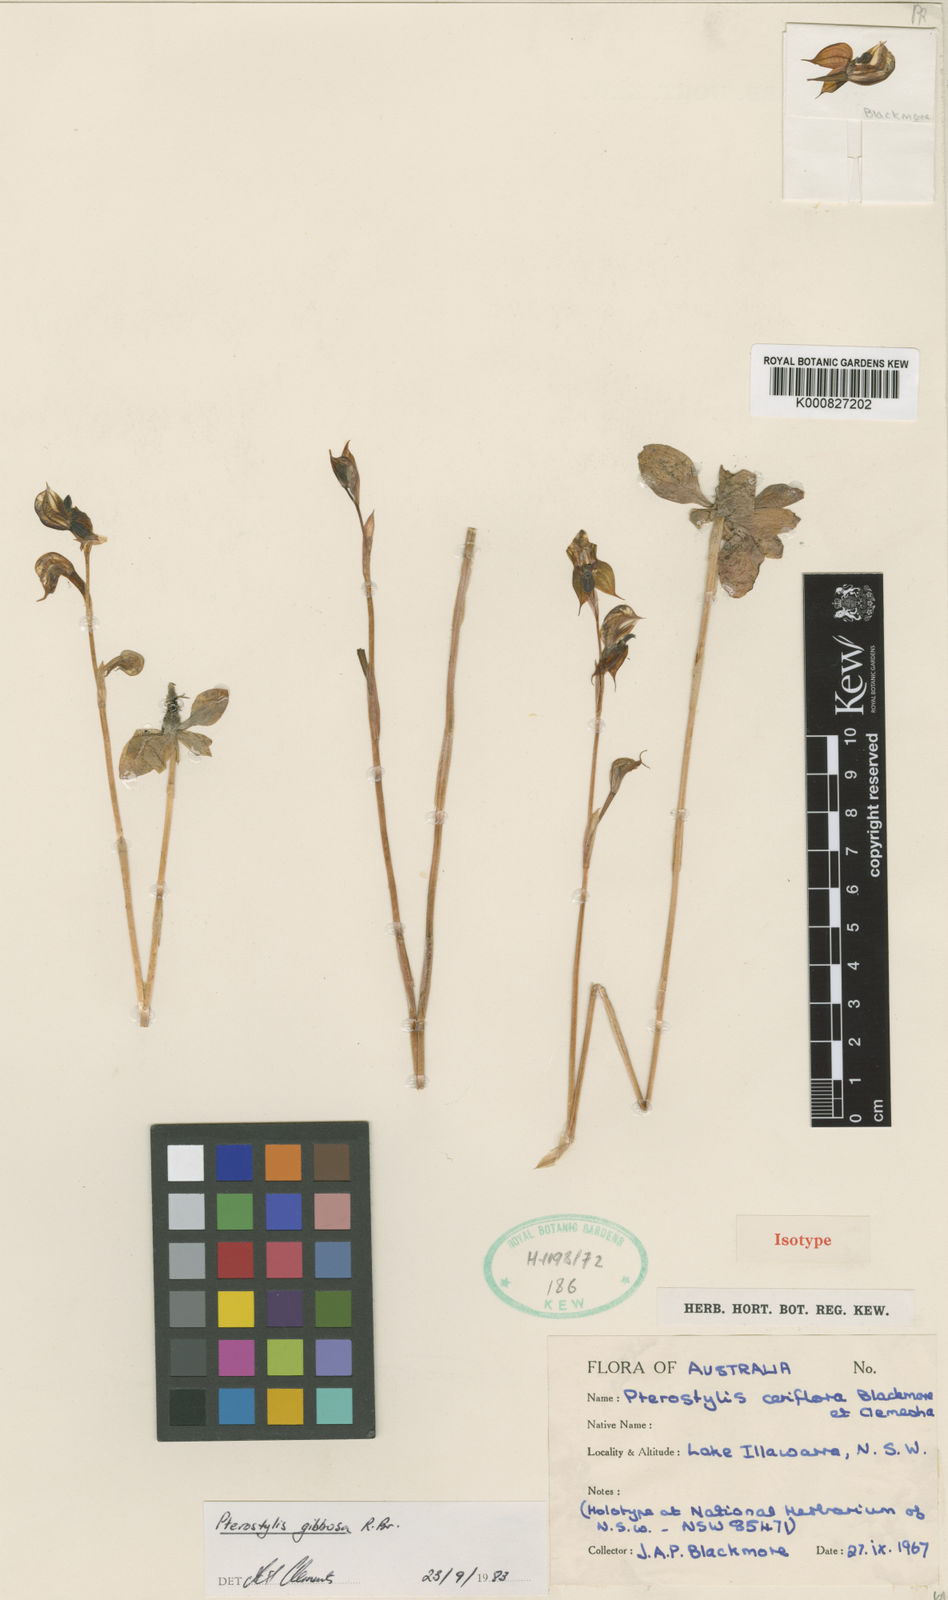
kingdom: Plantae
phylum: Tracheophyta
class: Liliopsida
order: Asparagales
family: Orchidaceae
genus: Pterostylis
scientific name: Pterostylis gibbosa
